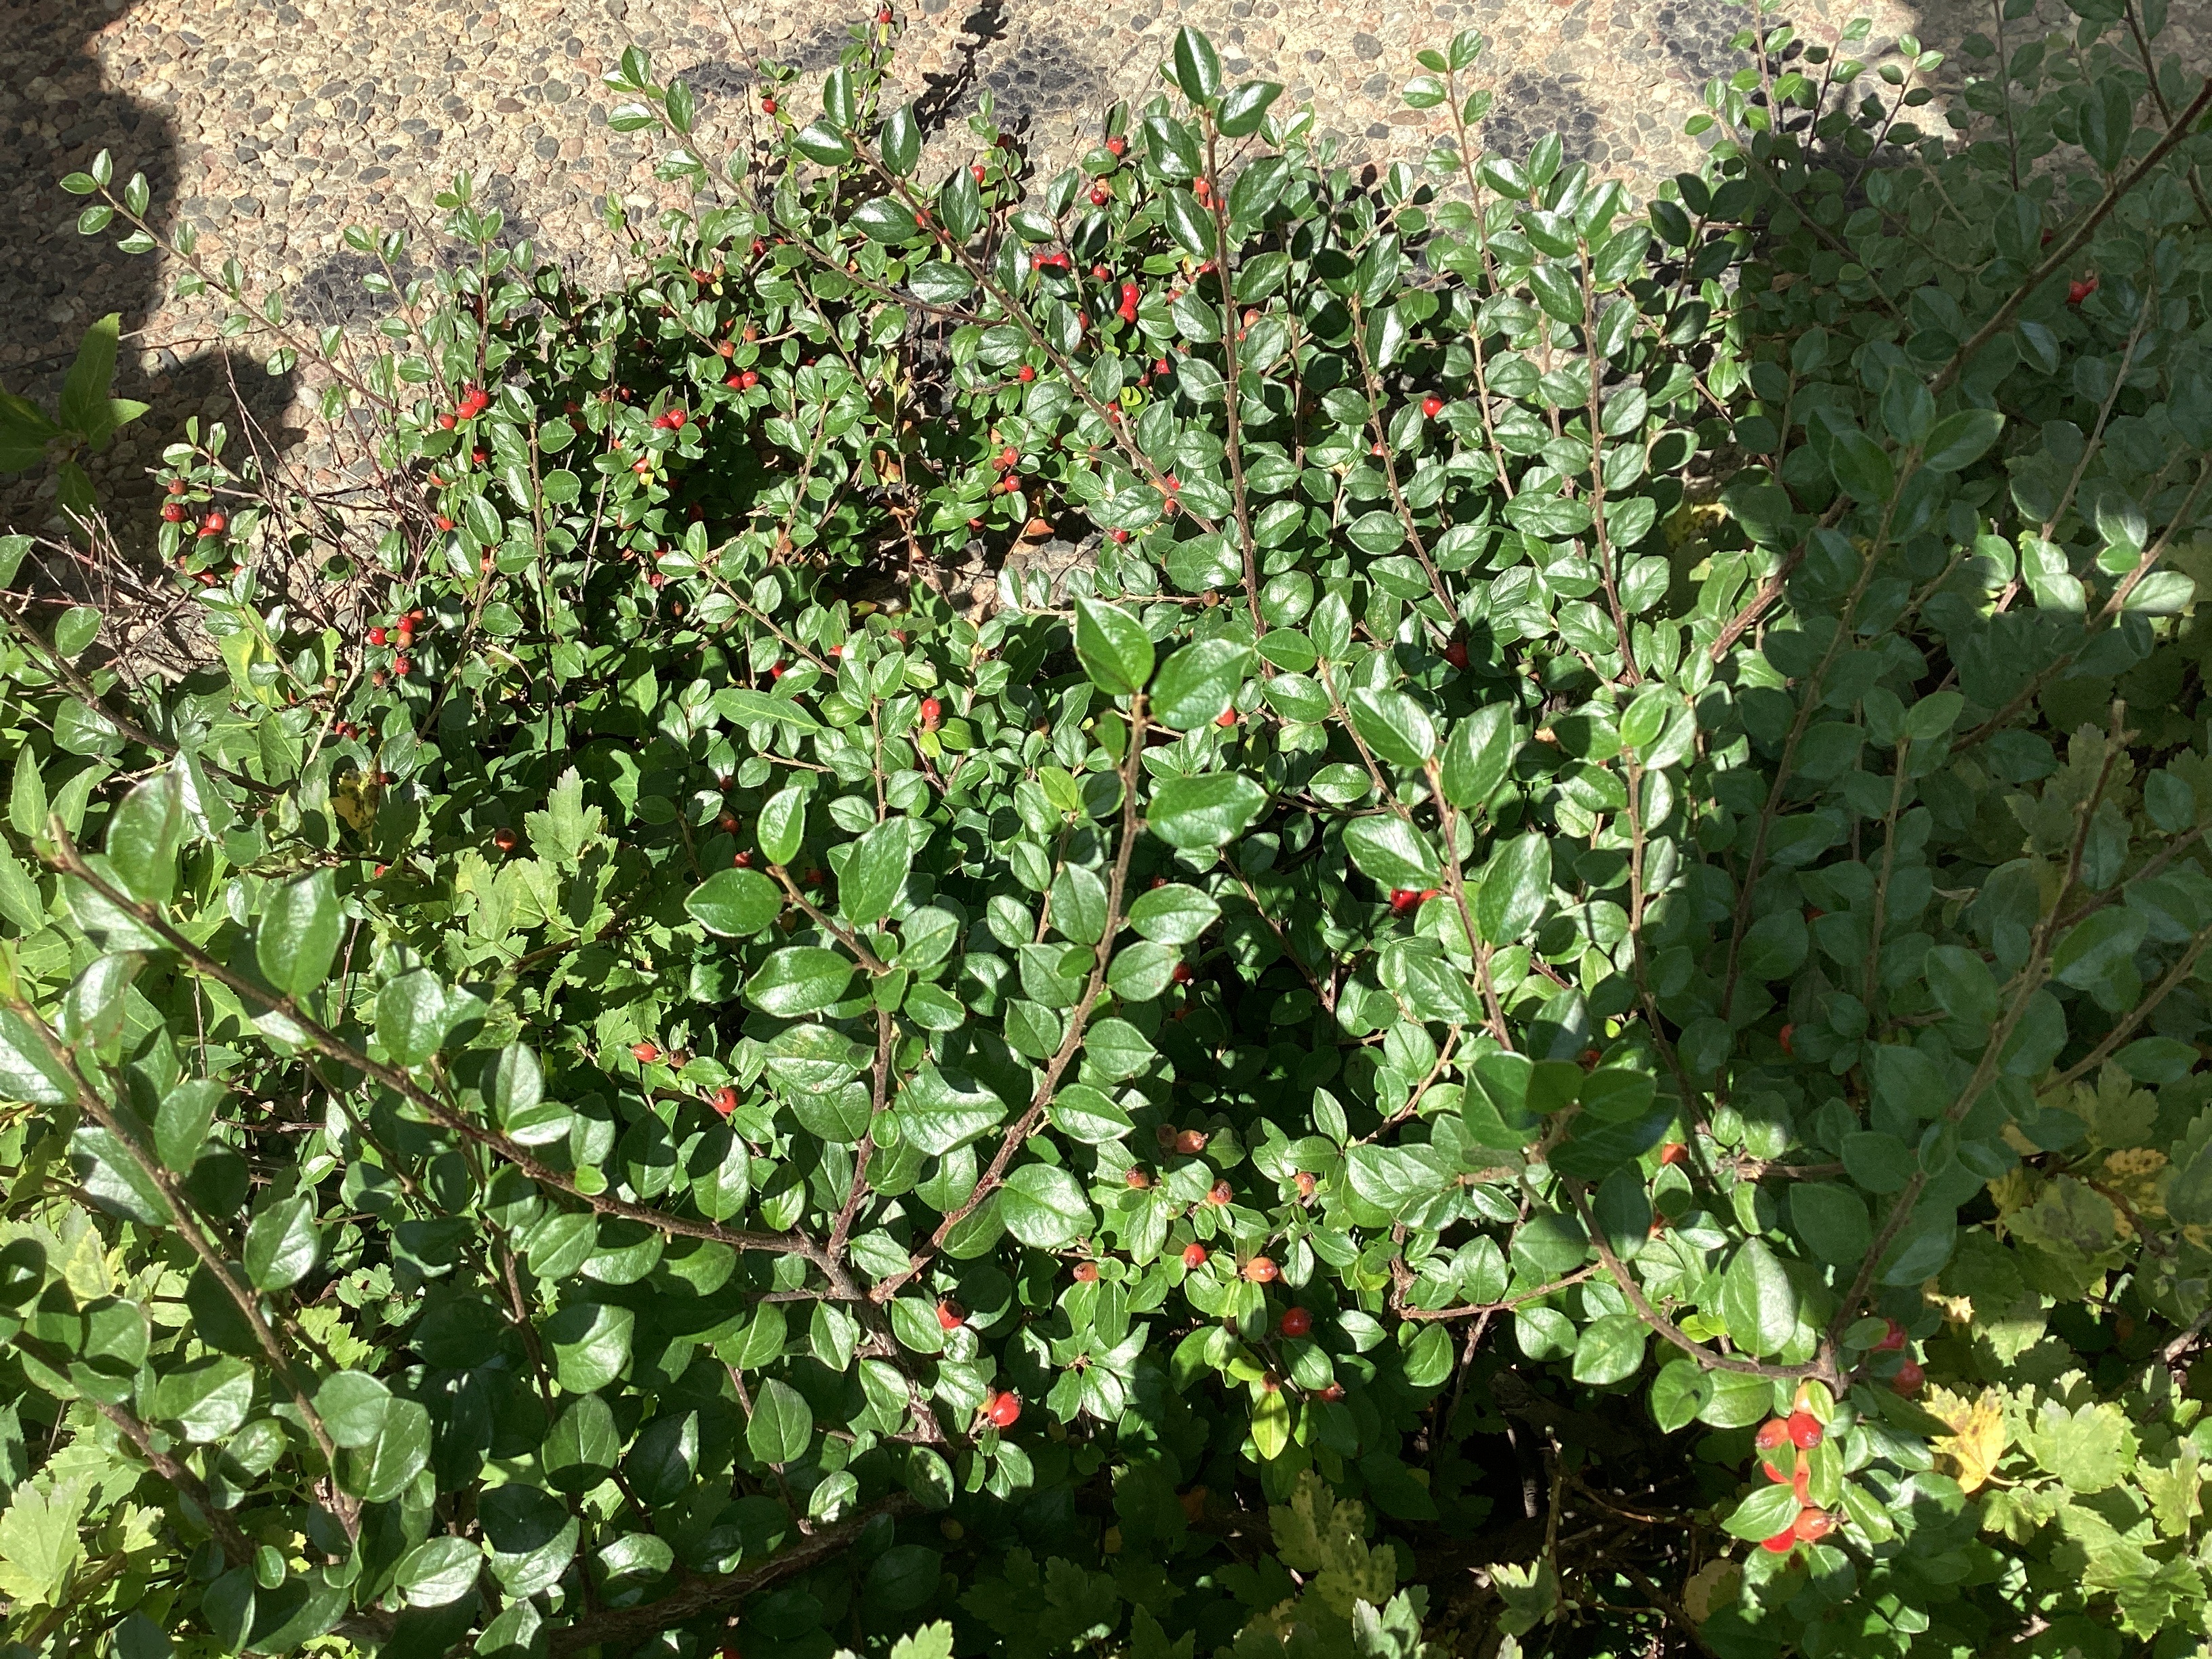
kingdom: Plantae
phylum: Tracheophyta
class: Magnoliopsida
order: Rosales
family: Rosaceae
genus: Cotoneaster
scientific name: Cotoneaster divaricatus
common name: sprikemispel
